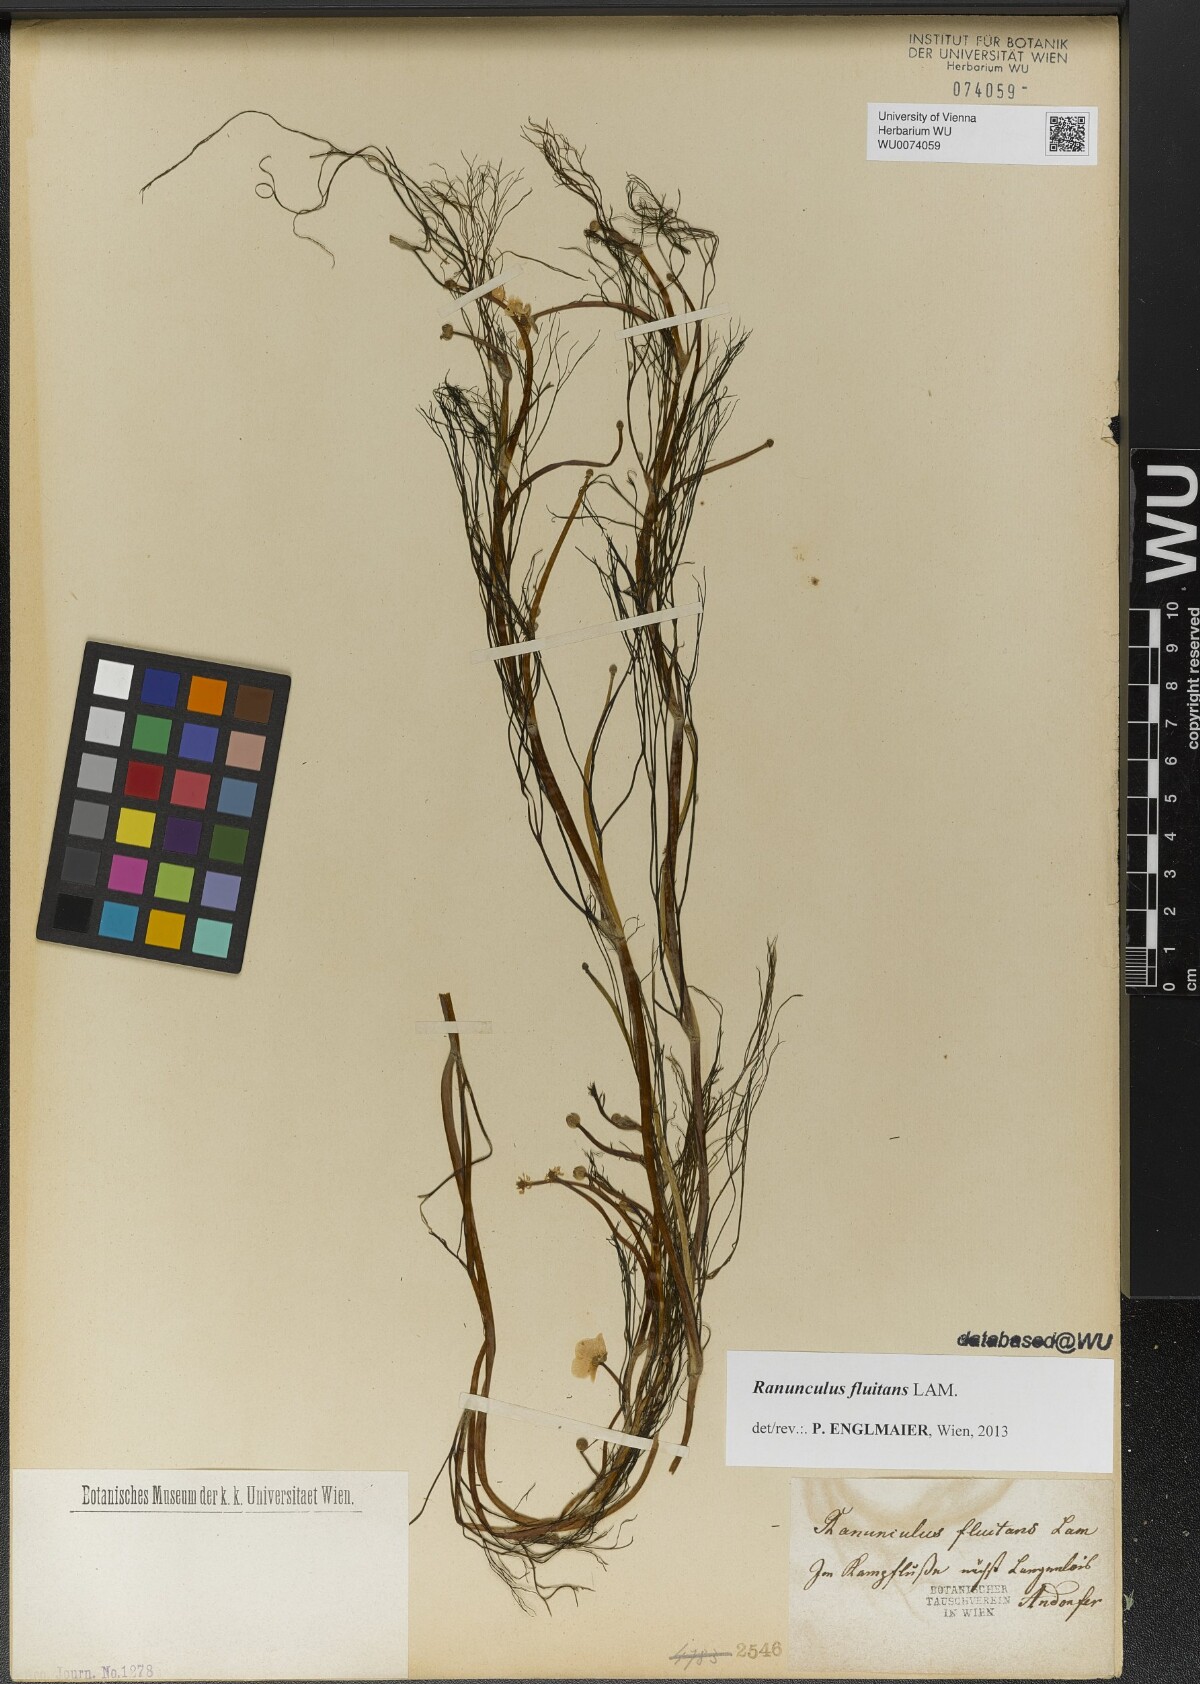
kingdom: Plantae
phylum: Tracheophyta
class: Magnoliopsida
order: Ranunculales
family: Ranunculaceae
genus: Ranunculus
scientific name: Ranunculus fluitans
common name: River water-crowfoot
